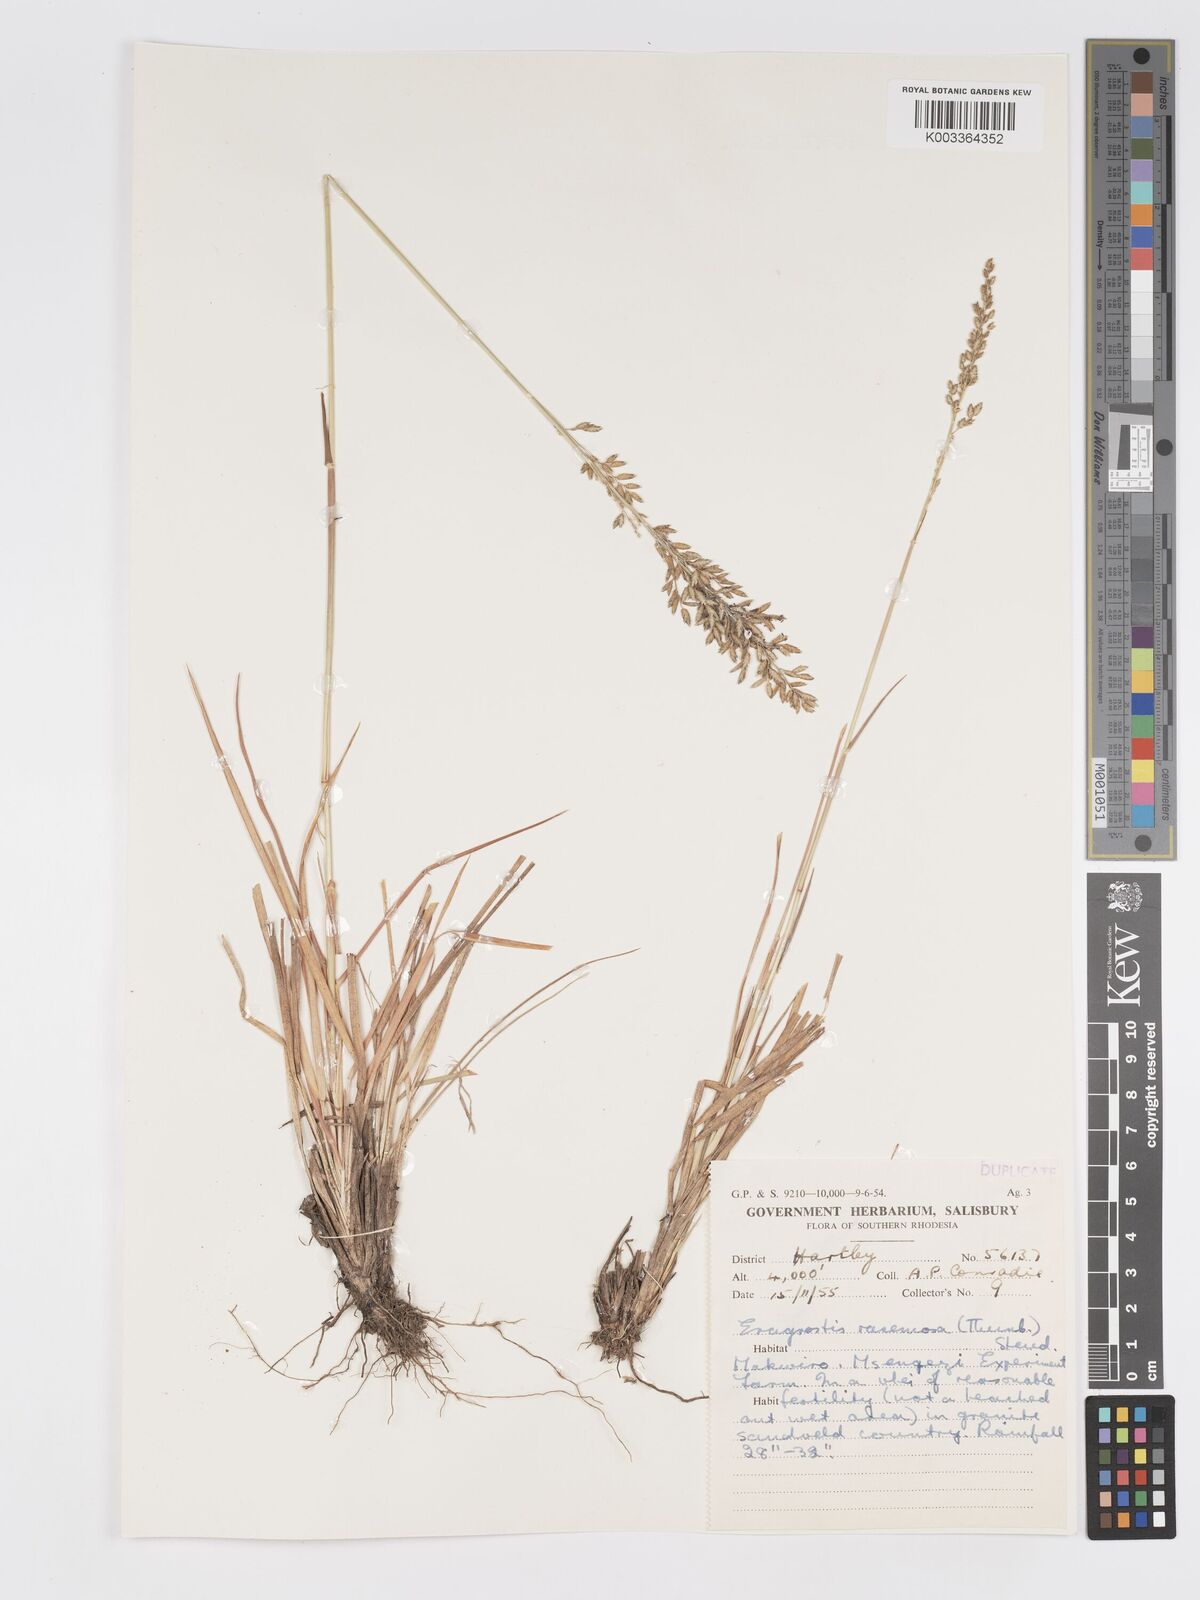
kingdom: Plantae
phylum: Tracheophyta
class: Liliopsida
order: Poales
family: Poaceae
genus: Eragrostis
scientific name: Eragrostis racemosa
